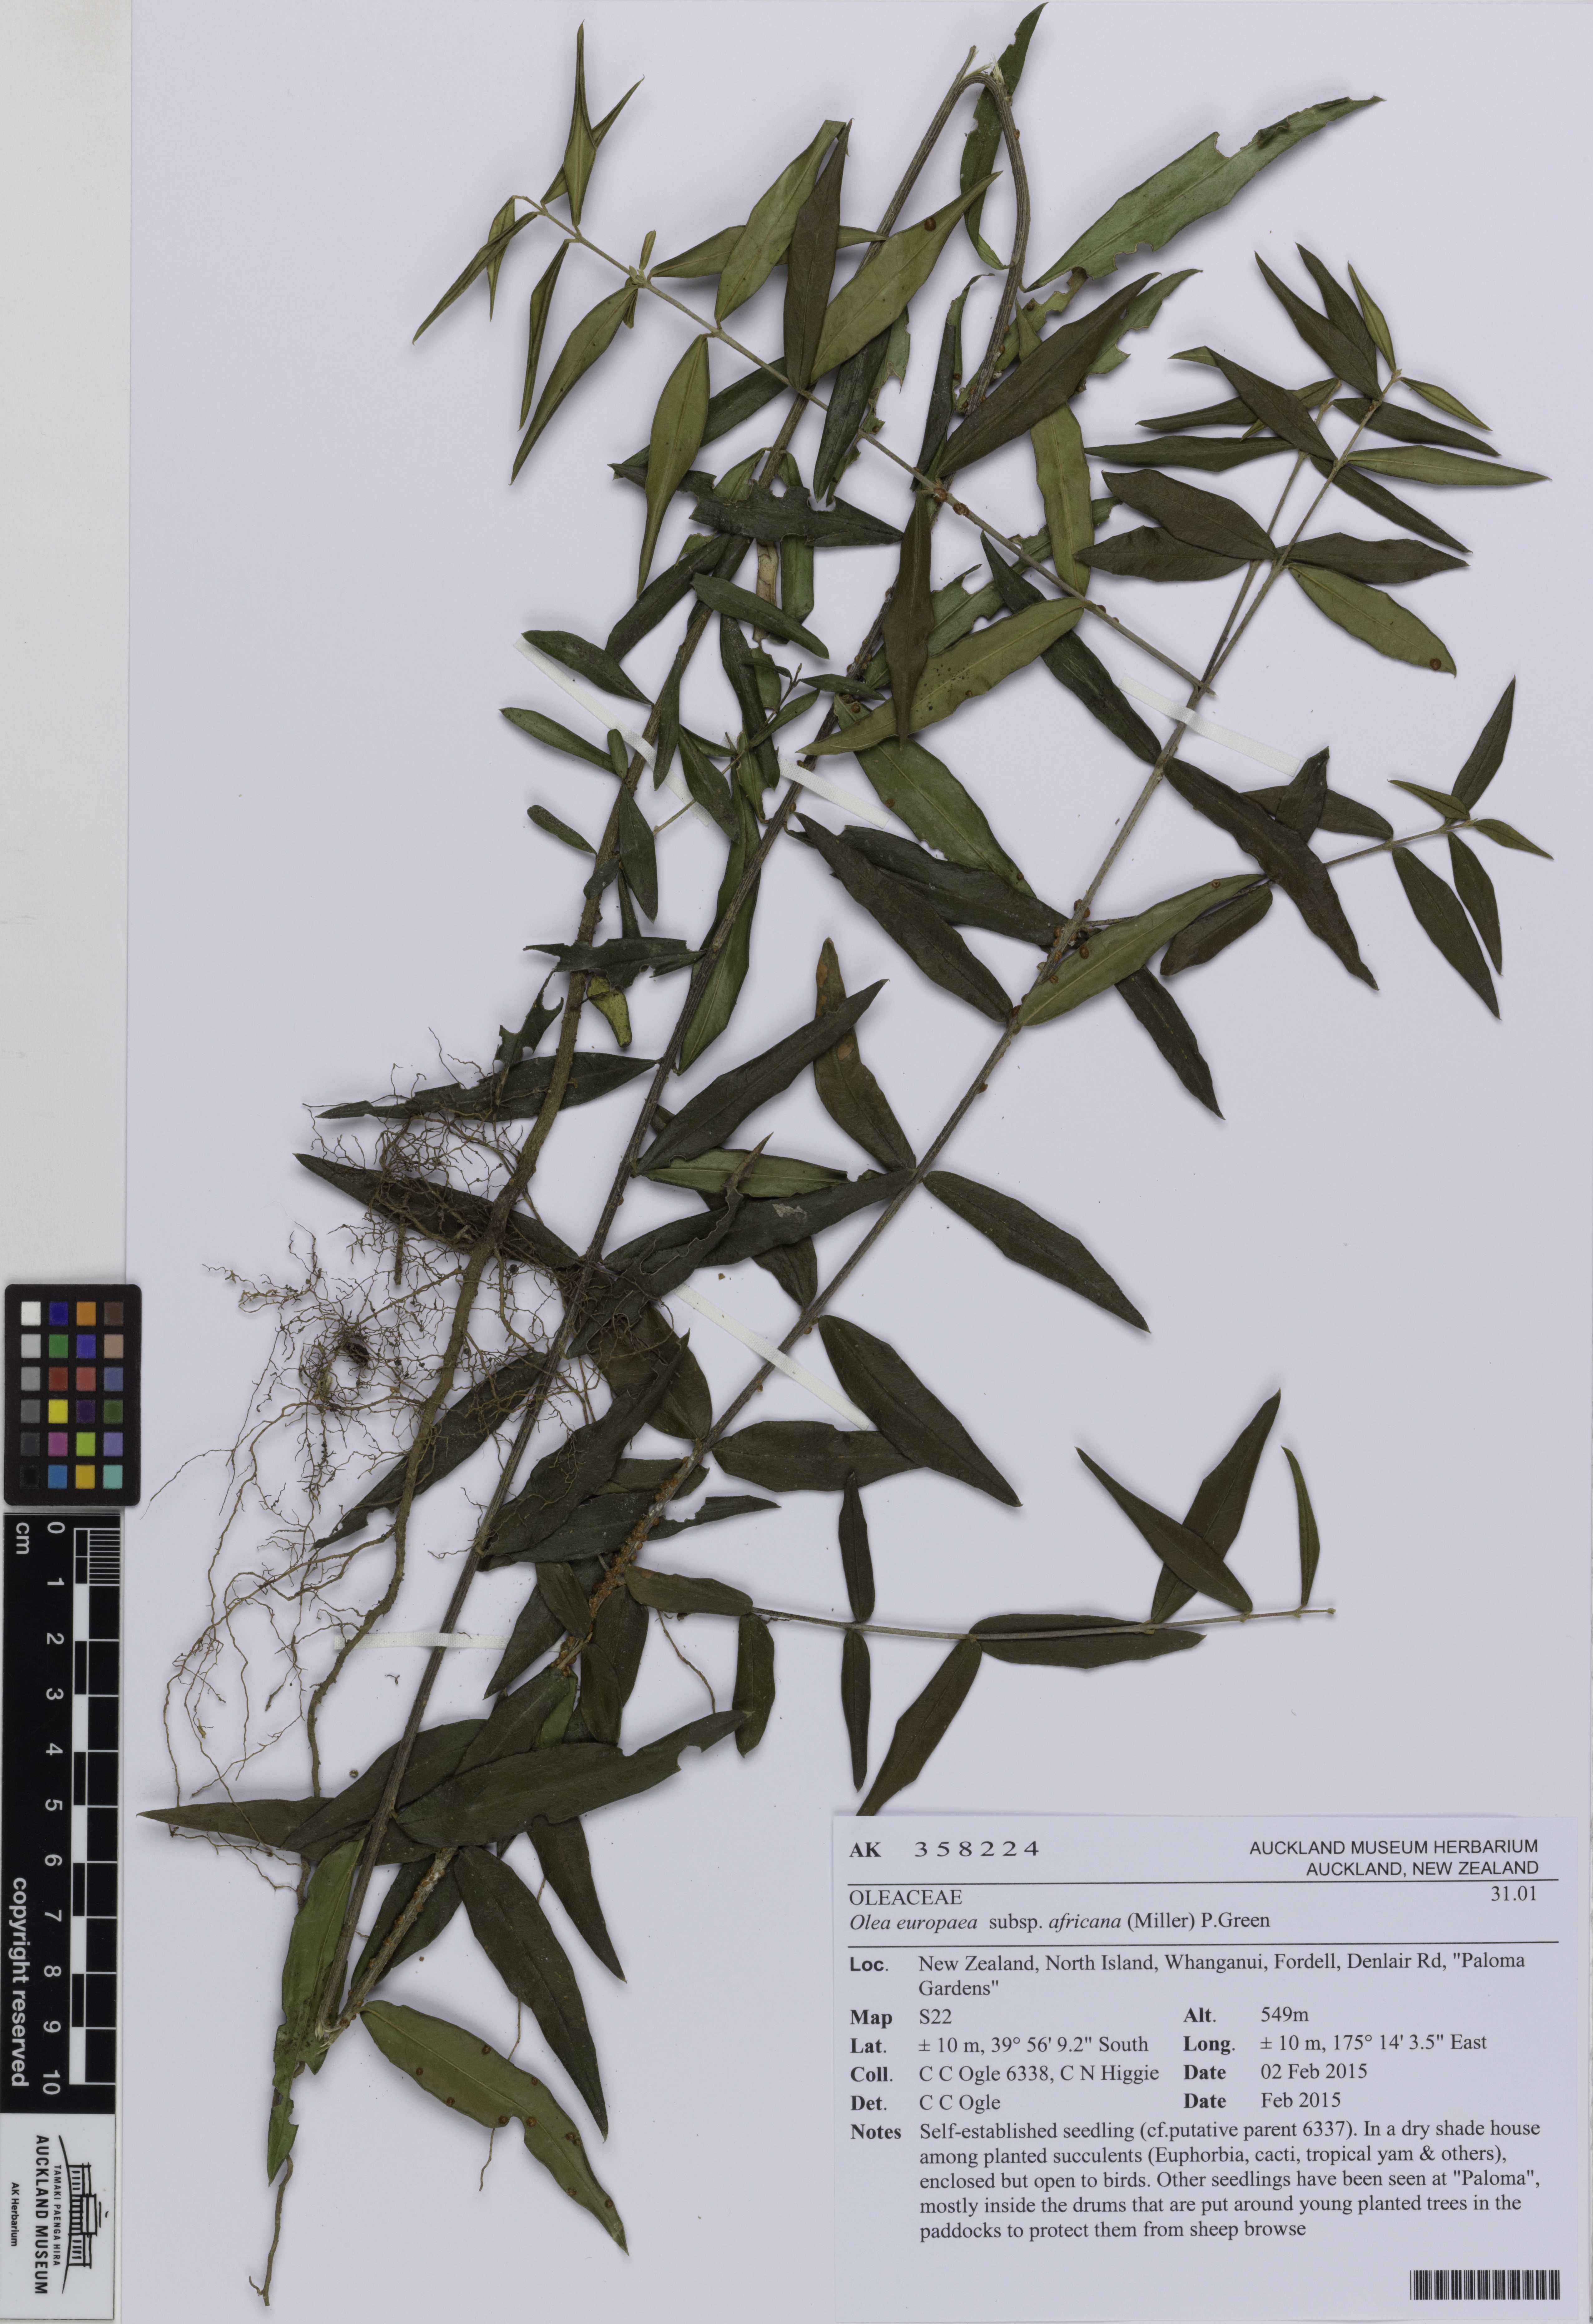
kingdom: Plantae
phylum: Tracheophyta
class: Magnoliopsida
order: Lamiales
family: Oleaceae
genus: Olea
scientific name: Olea europaea
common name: Olive
